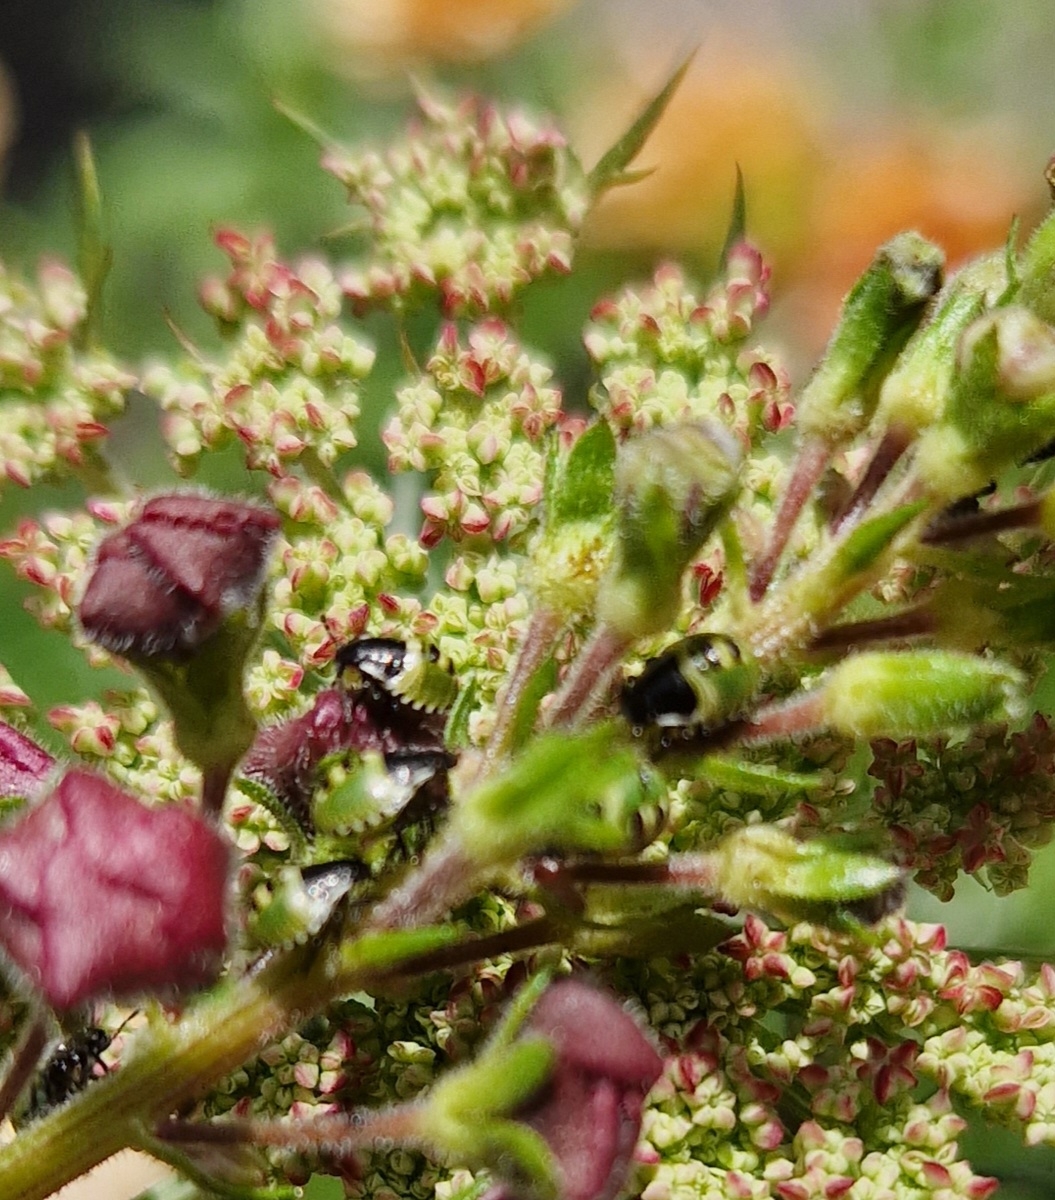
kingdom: Animalia
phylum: Arthropoda
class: Insecta
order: Hemiptera
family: Pentatomidae
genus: Palomena
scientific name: Palomena prasina
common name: Grøn bredtæge
